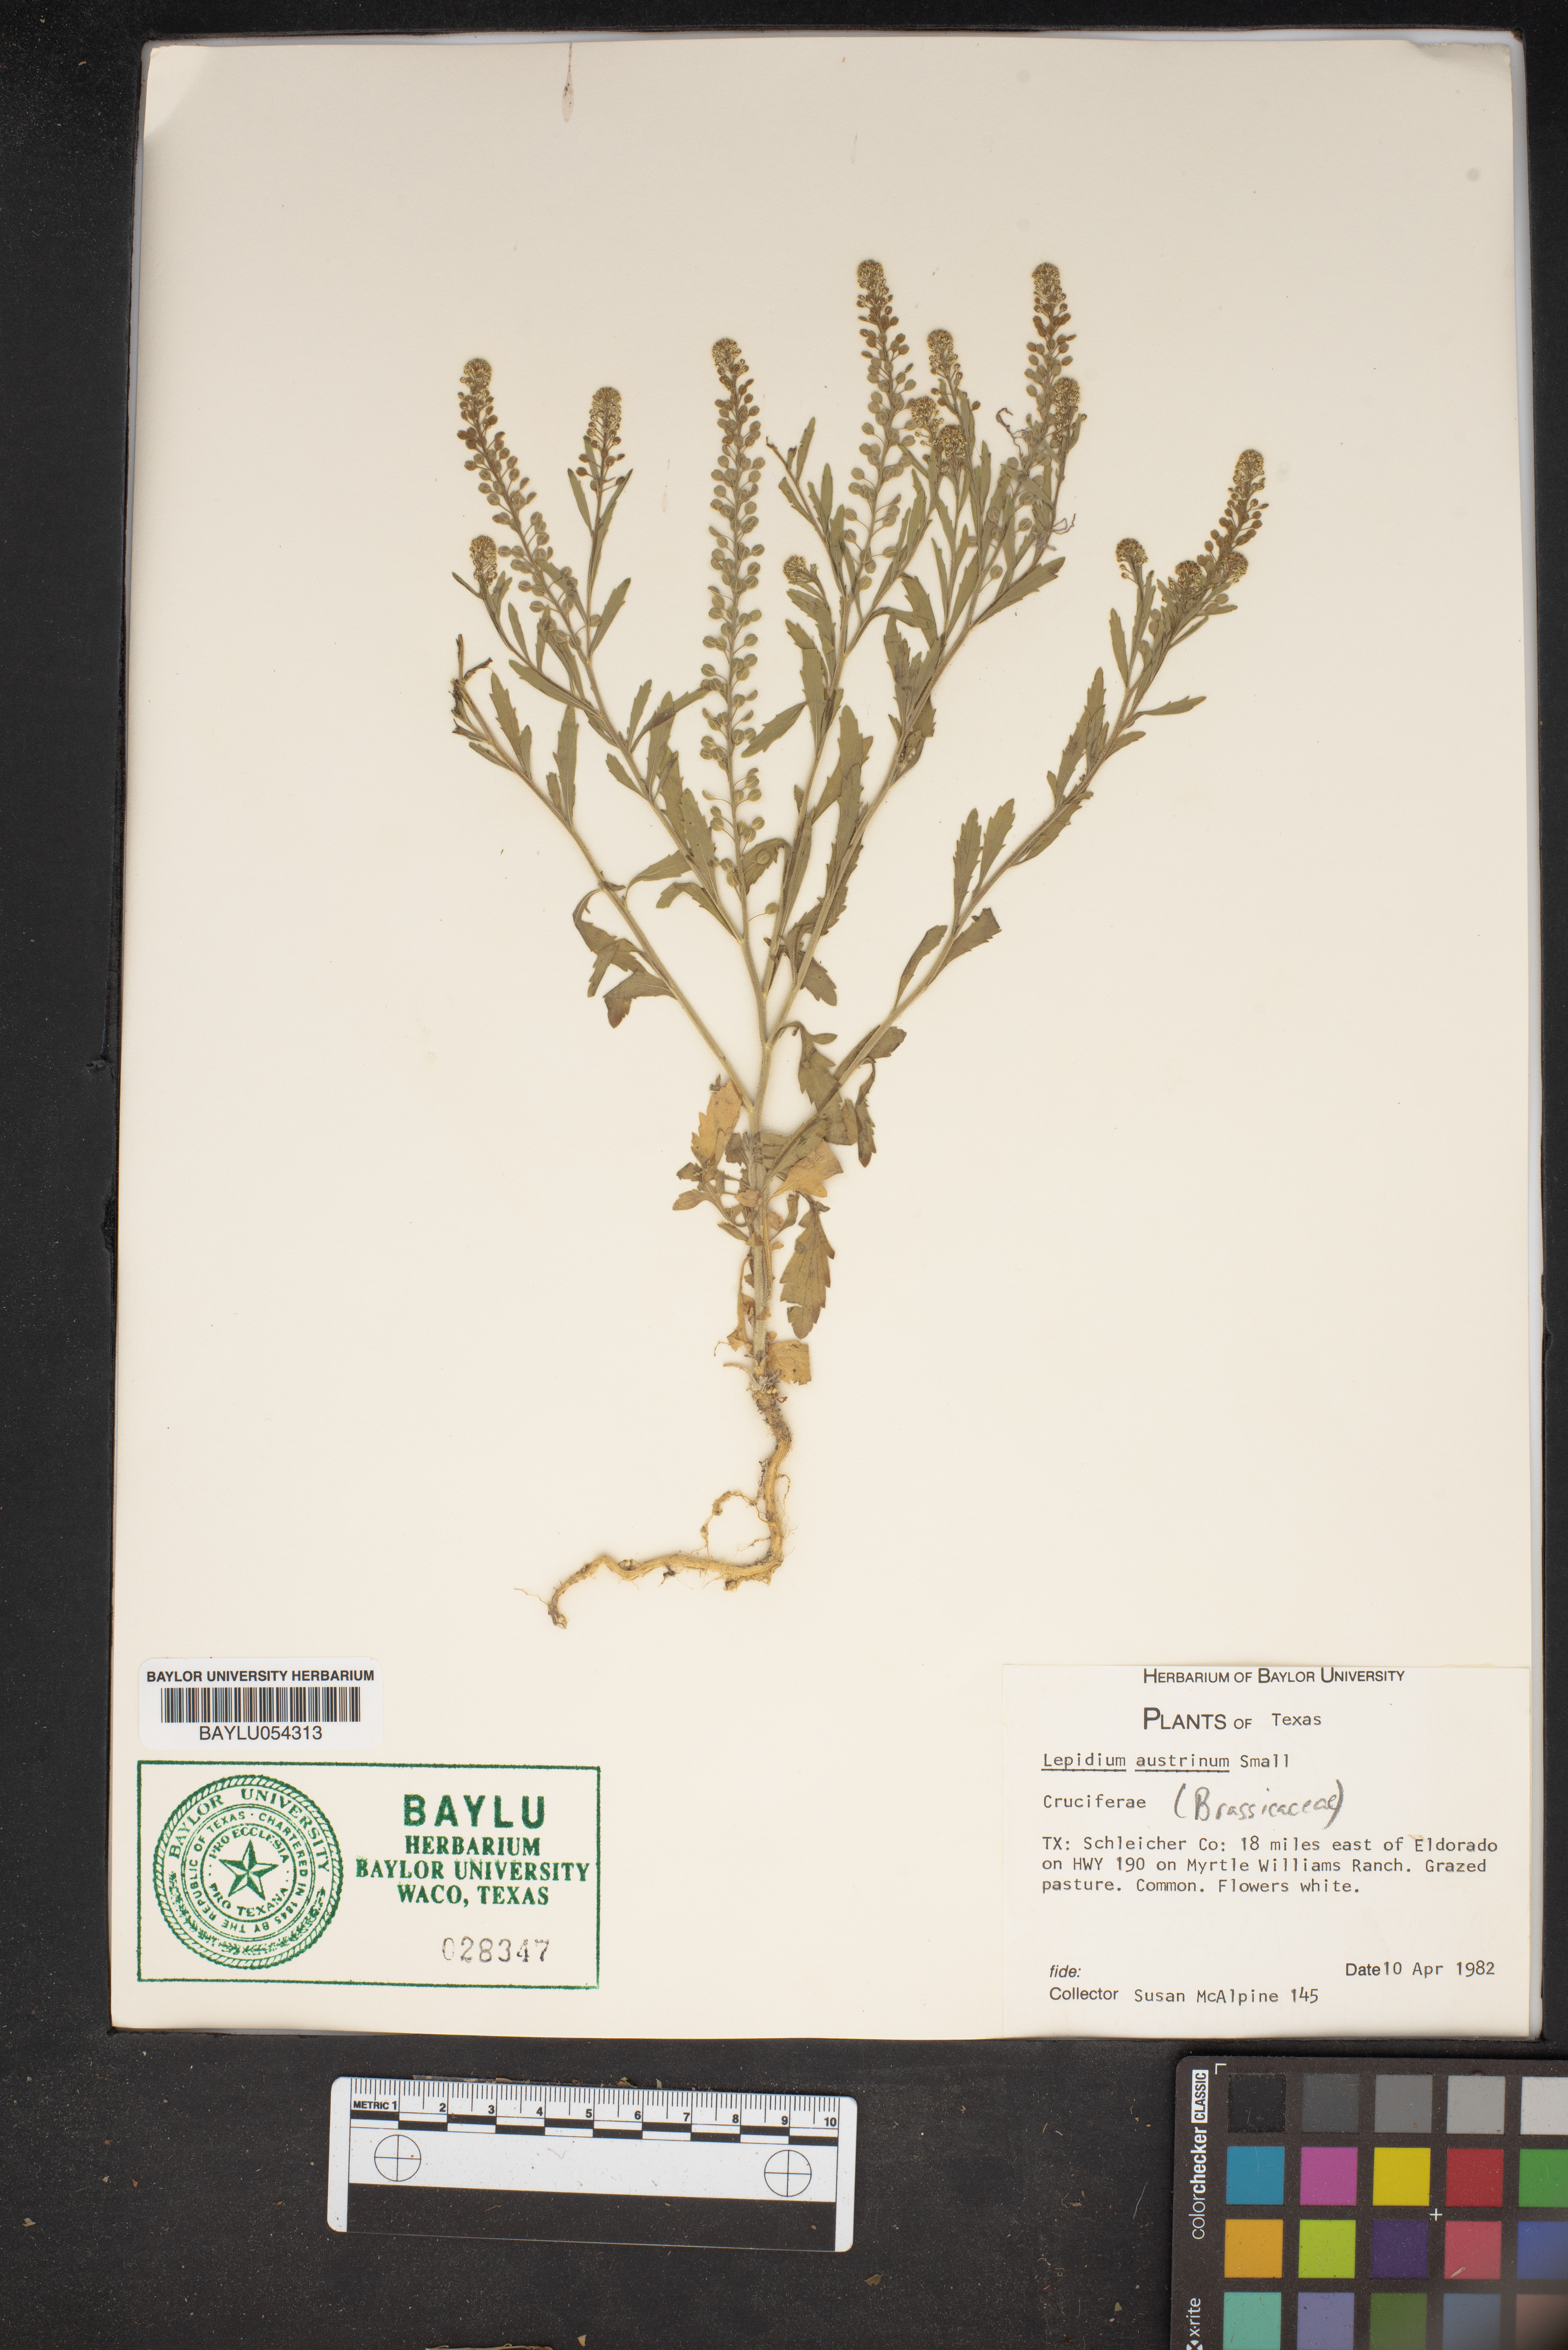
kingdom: Plantae
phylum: Tracheophyta
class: Magnoliopsida
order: Brassicales
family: Brassicaceae
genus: Lepidium
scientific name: Lepidium austrinum
